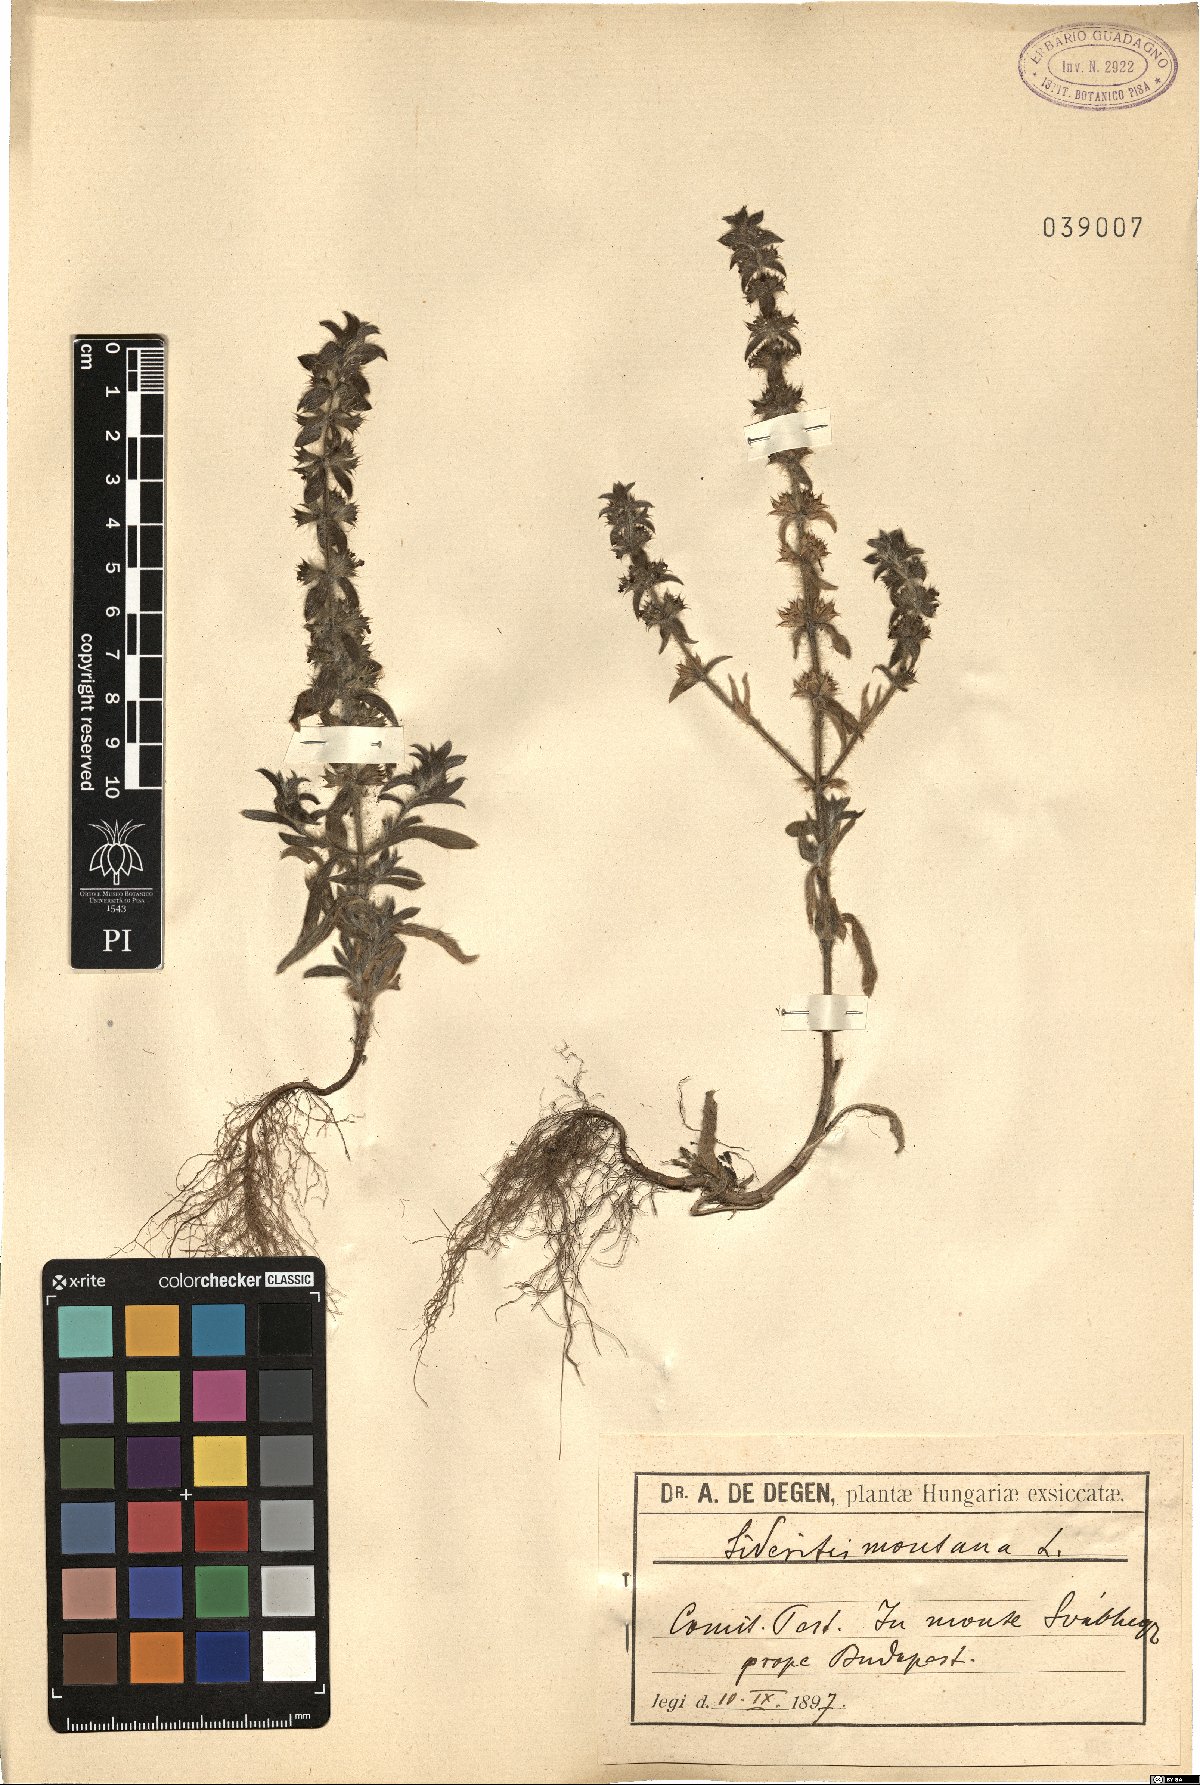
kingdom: Plantae
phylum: Tracheophyta
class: Magnoliopsida
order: Lamiales
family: Lamiaceae
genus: Sideritis
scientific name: Sideritis montana
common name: Mountain ironwort
